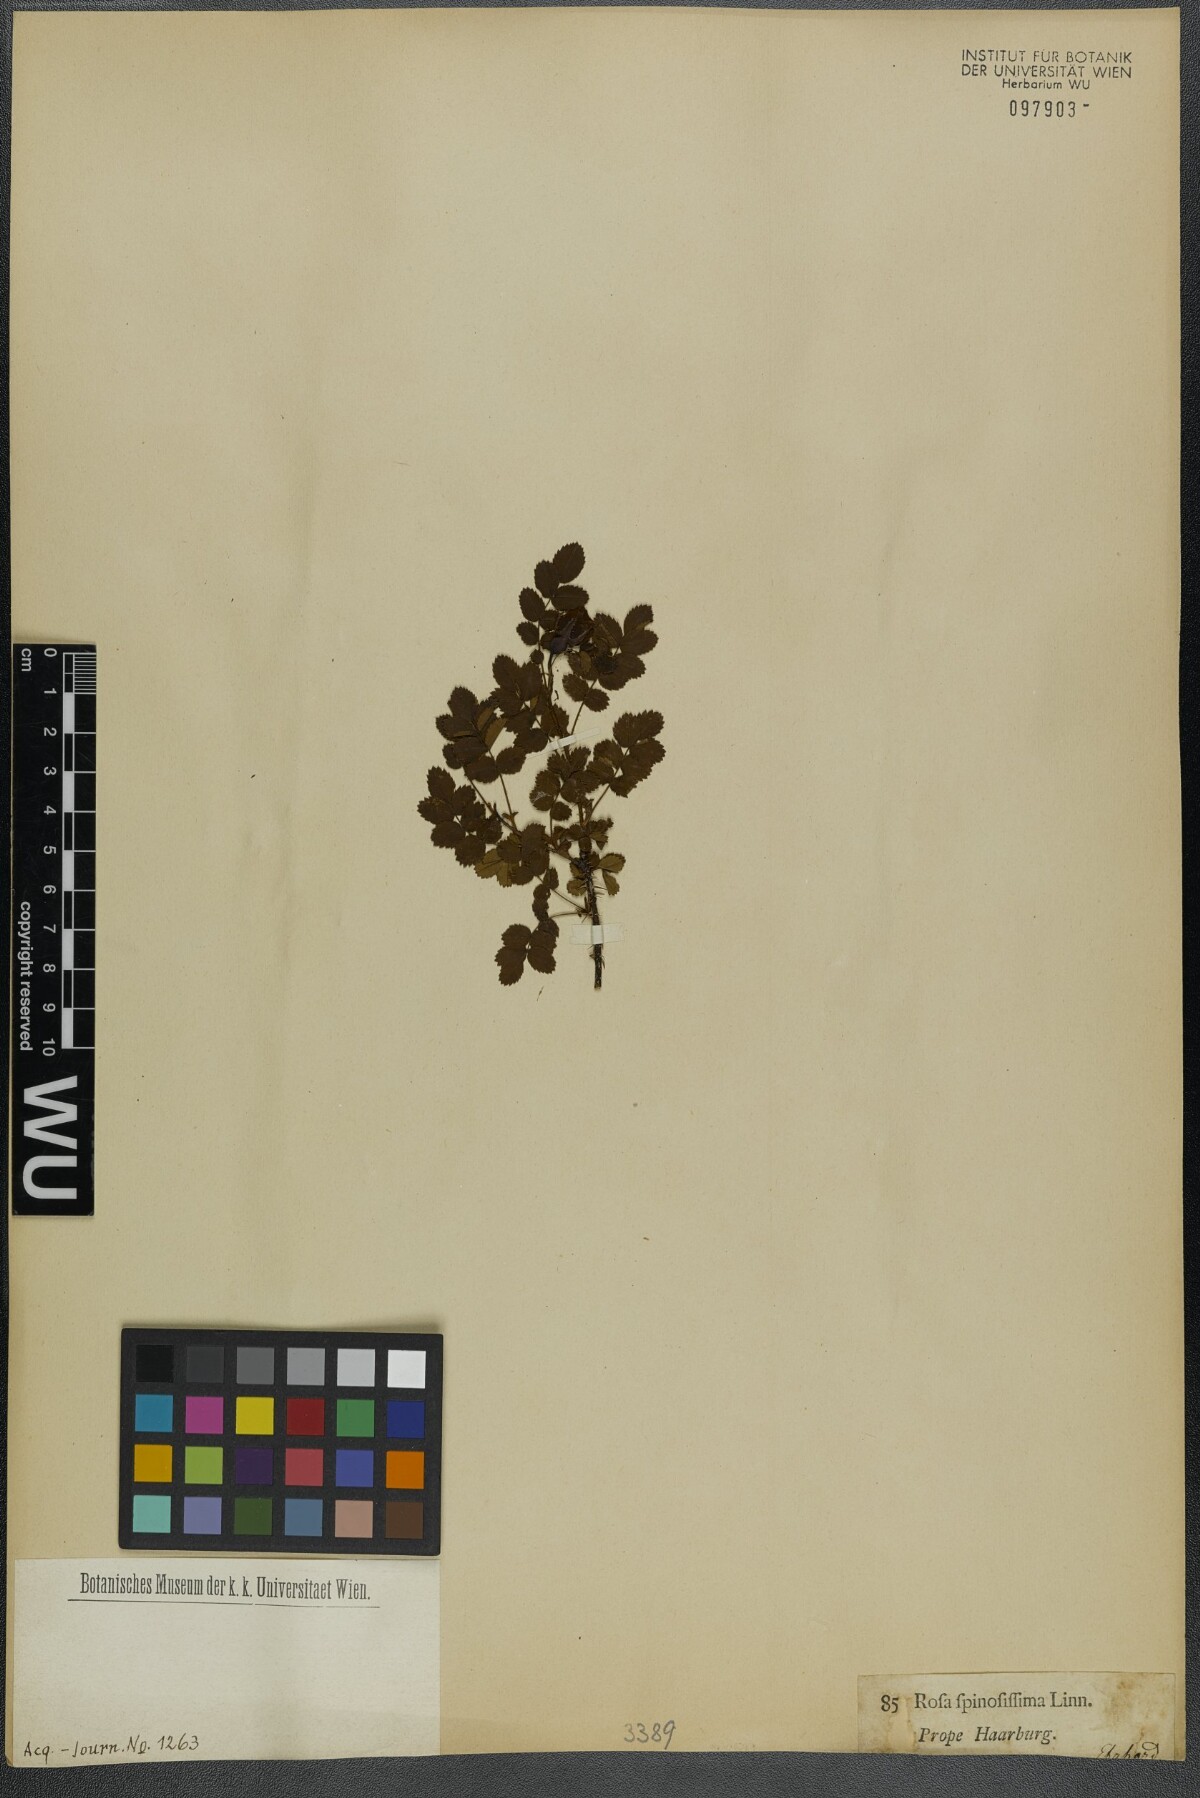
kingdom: Plantae
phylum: Tracheophyta
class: Magnoliopsida
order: Rosales
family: Rosaceae
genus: Rosa
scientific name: Rosa spinosissima
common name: Burnet rose
